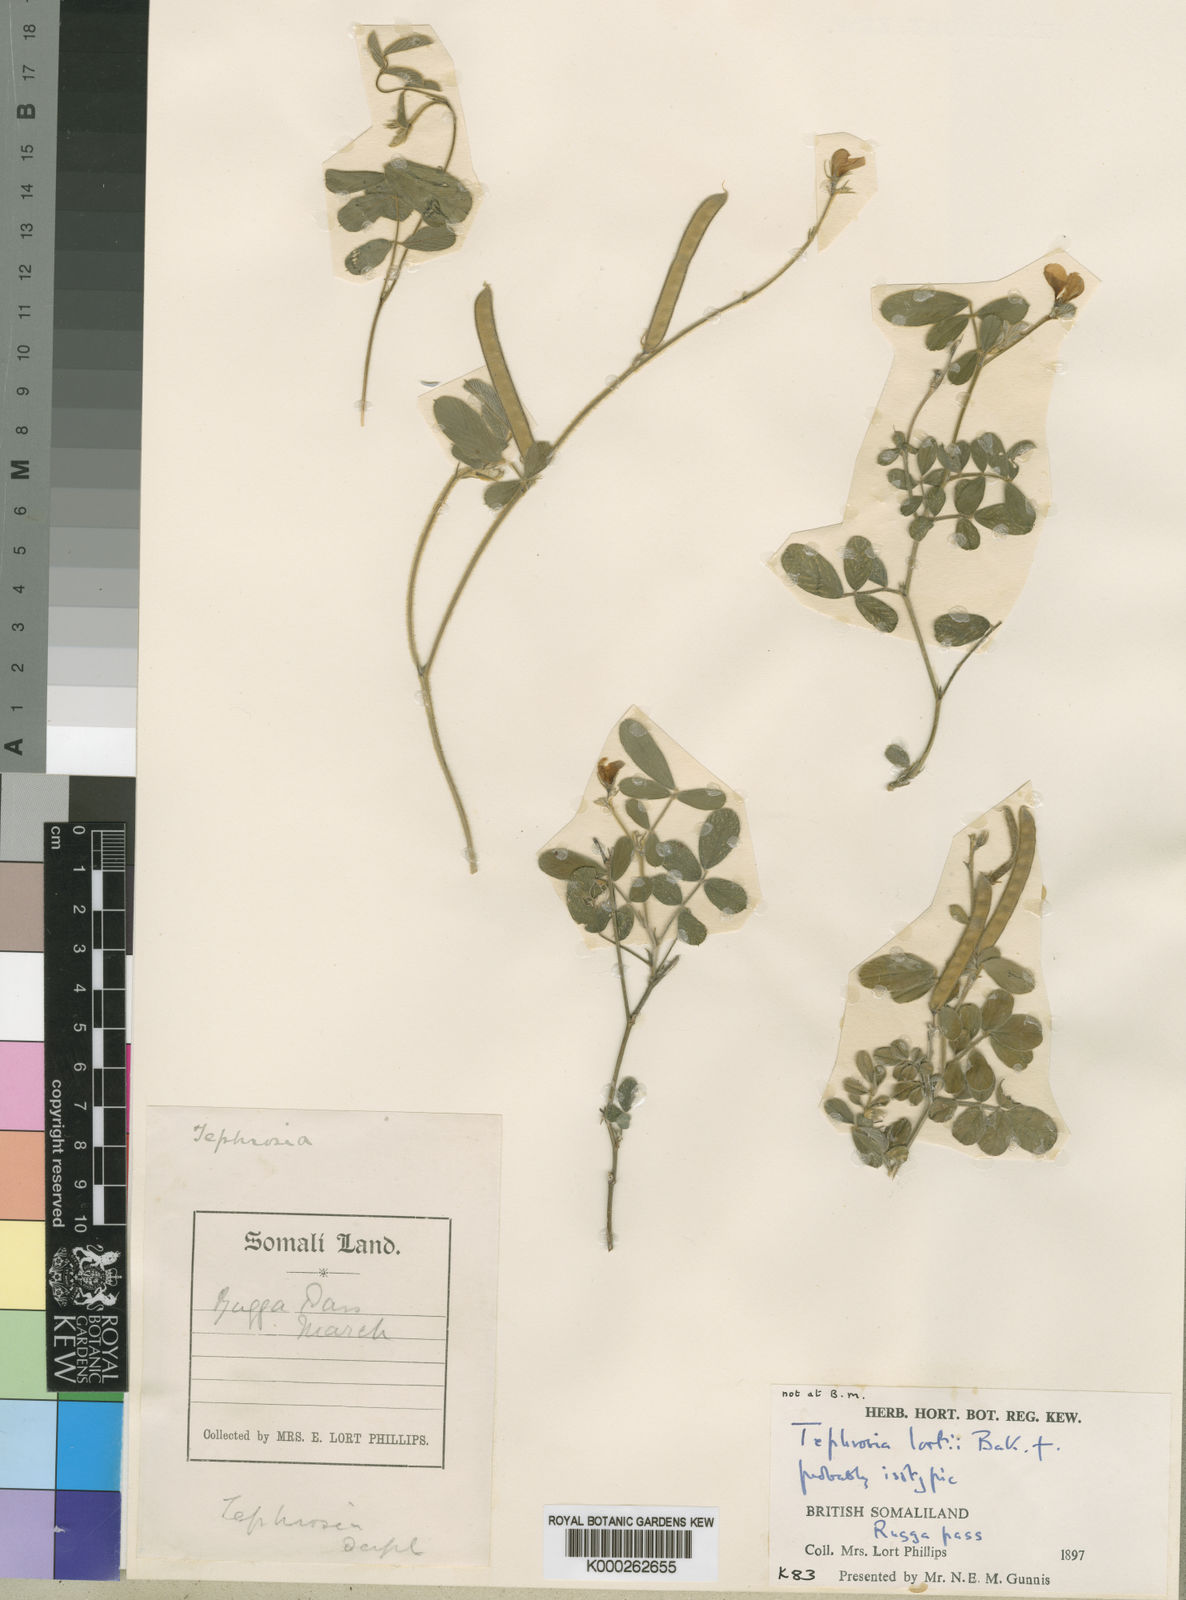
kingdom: Plantae
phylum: Tracheophyta
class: Magnoliopsida
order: Fabales
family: Fabaceae
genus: Tephrosia
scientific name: Tephrosia lortii
